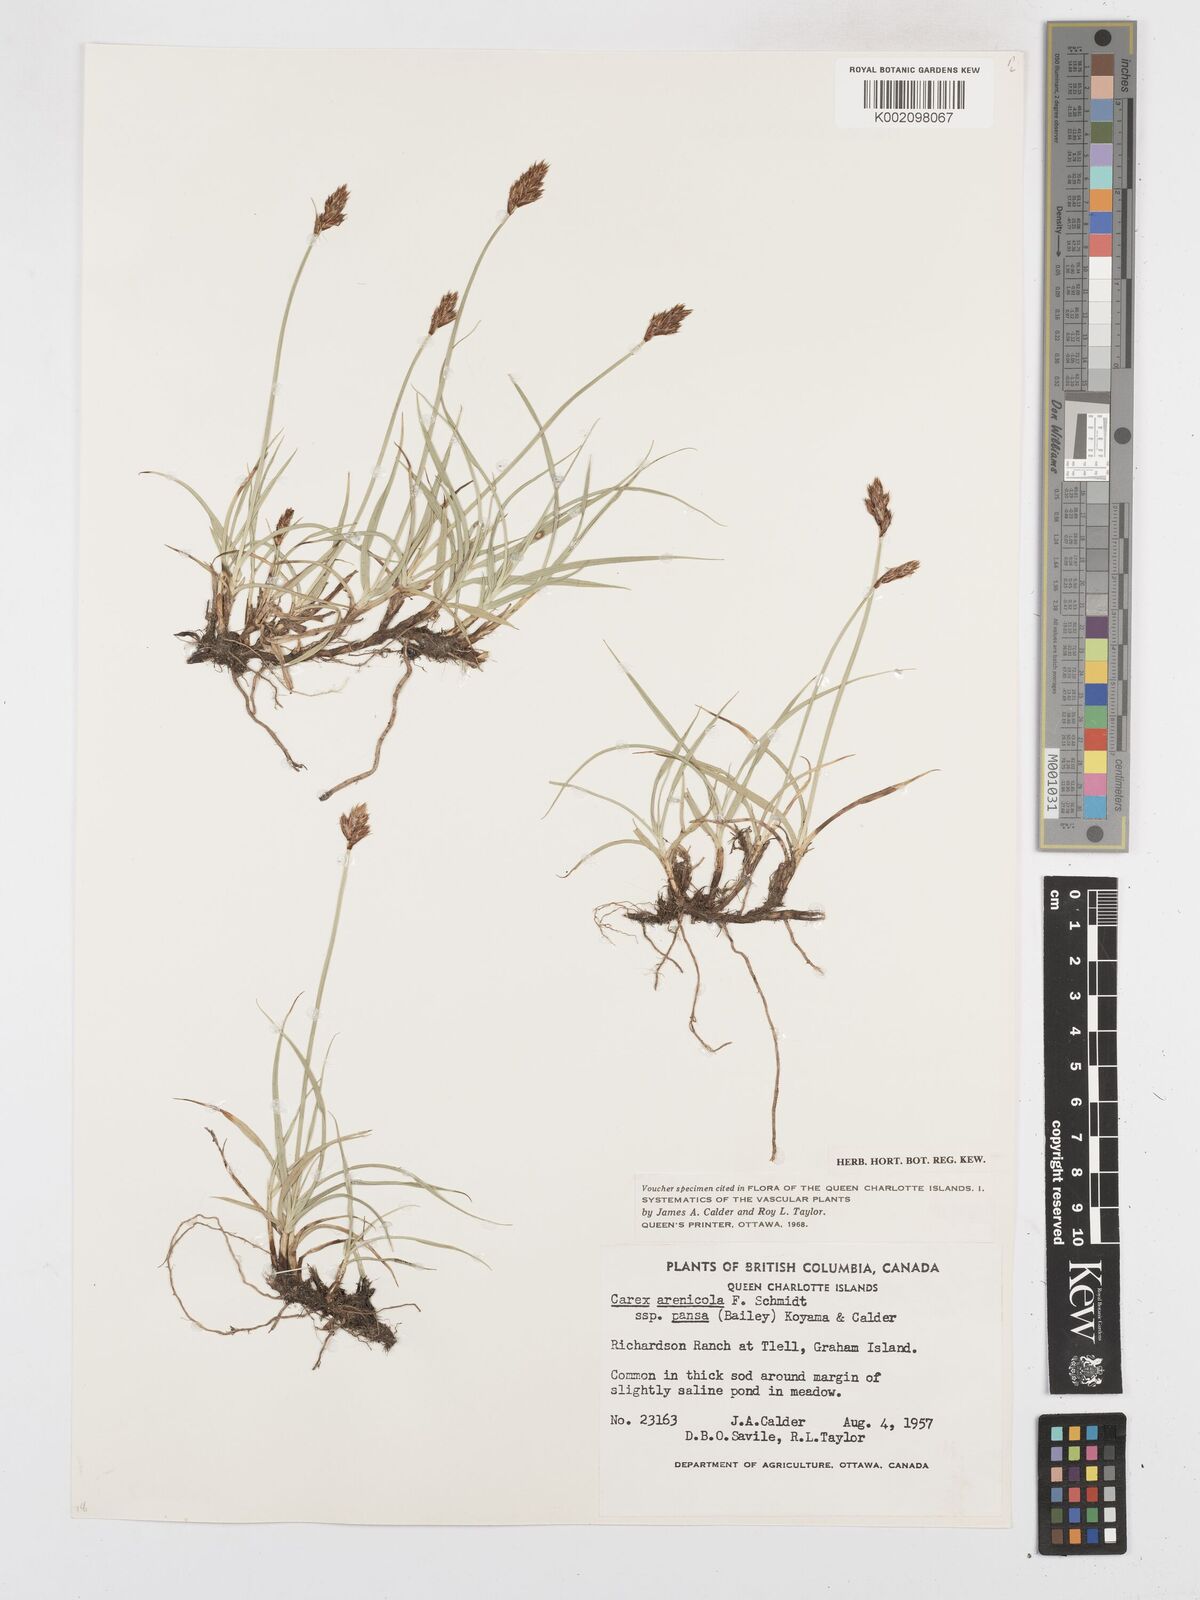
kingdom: Plantae
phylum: Tracheophyta
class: Liliopsida
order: Poales
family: Cyperaceae
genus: Carex
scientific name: Carex pansa
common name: Sand sedge
